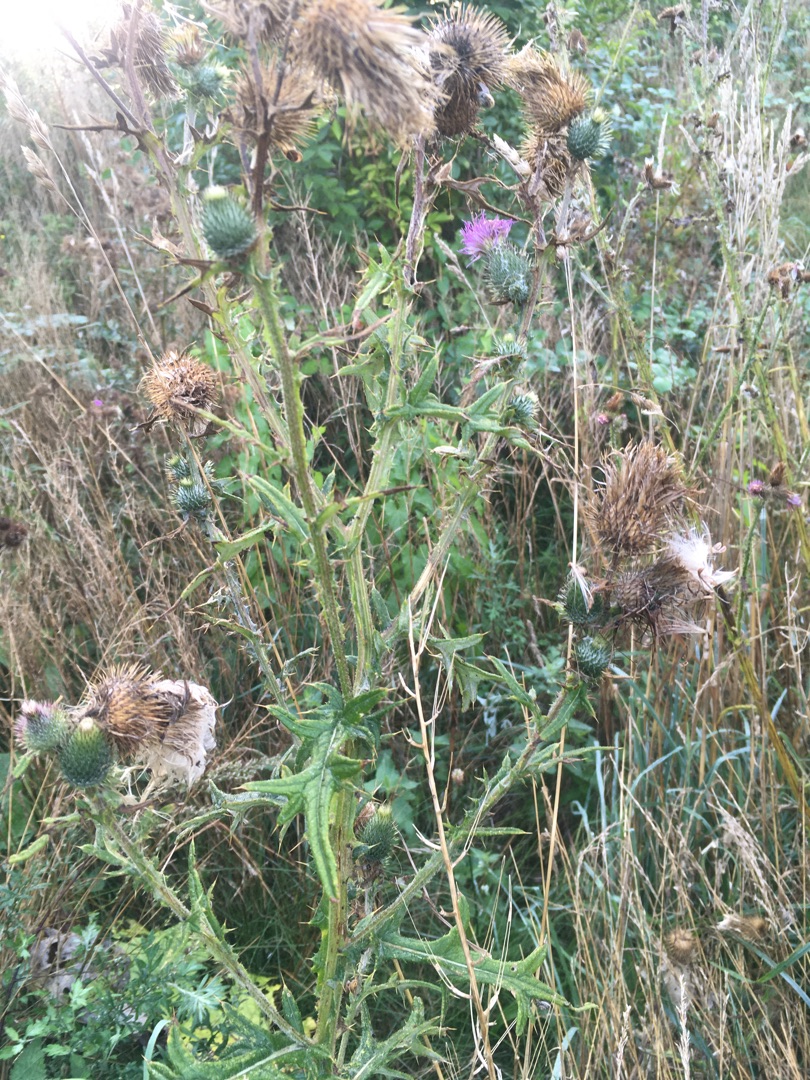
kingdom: Plantae
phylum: Tracheophyta
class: Magnoliopsida
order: Asterales
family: Asteraceae
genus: Cirsium
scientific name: Cirsium vulgare
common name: Horse-tidsel
